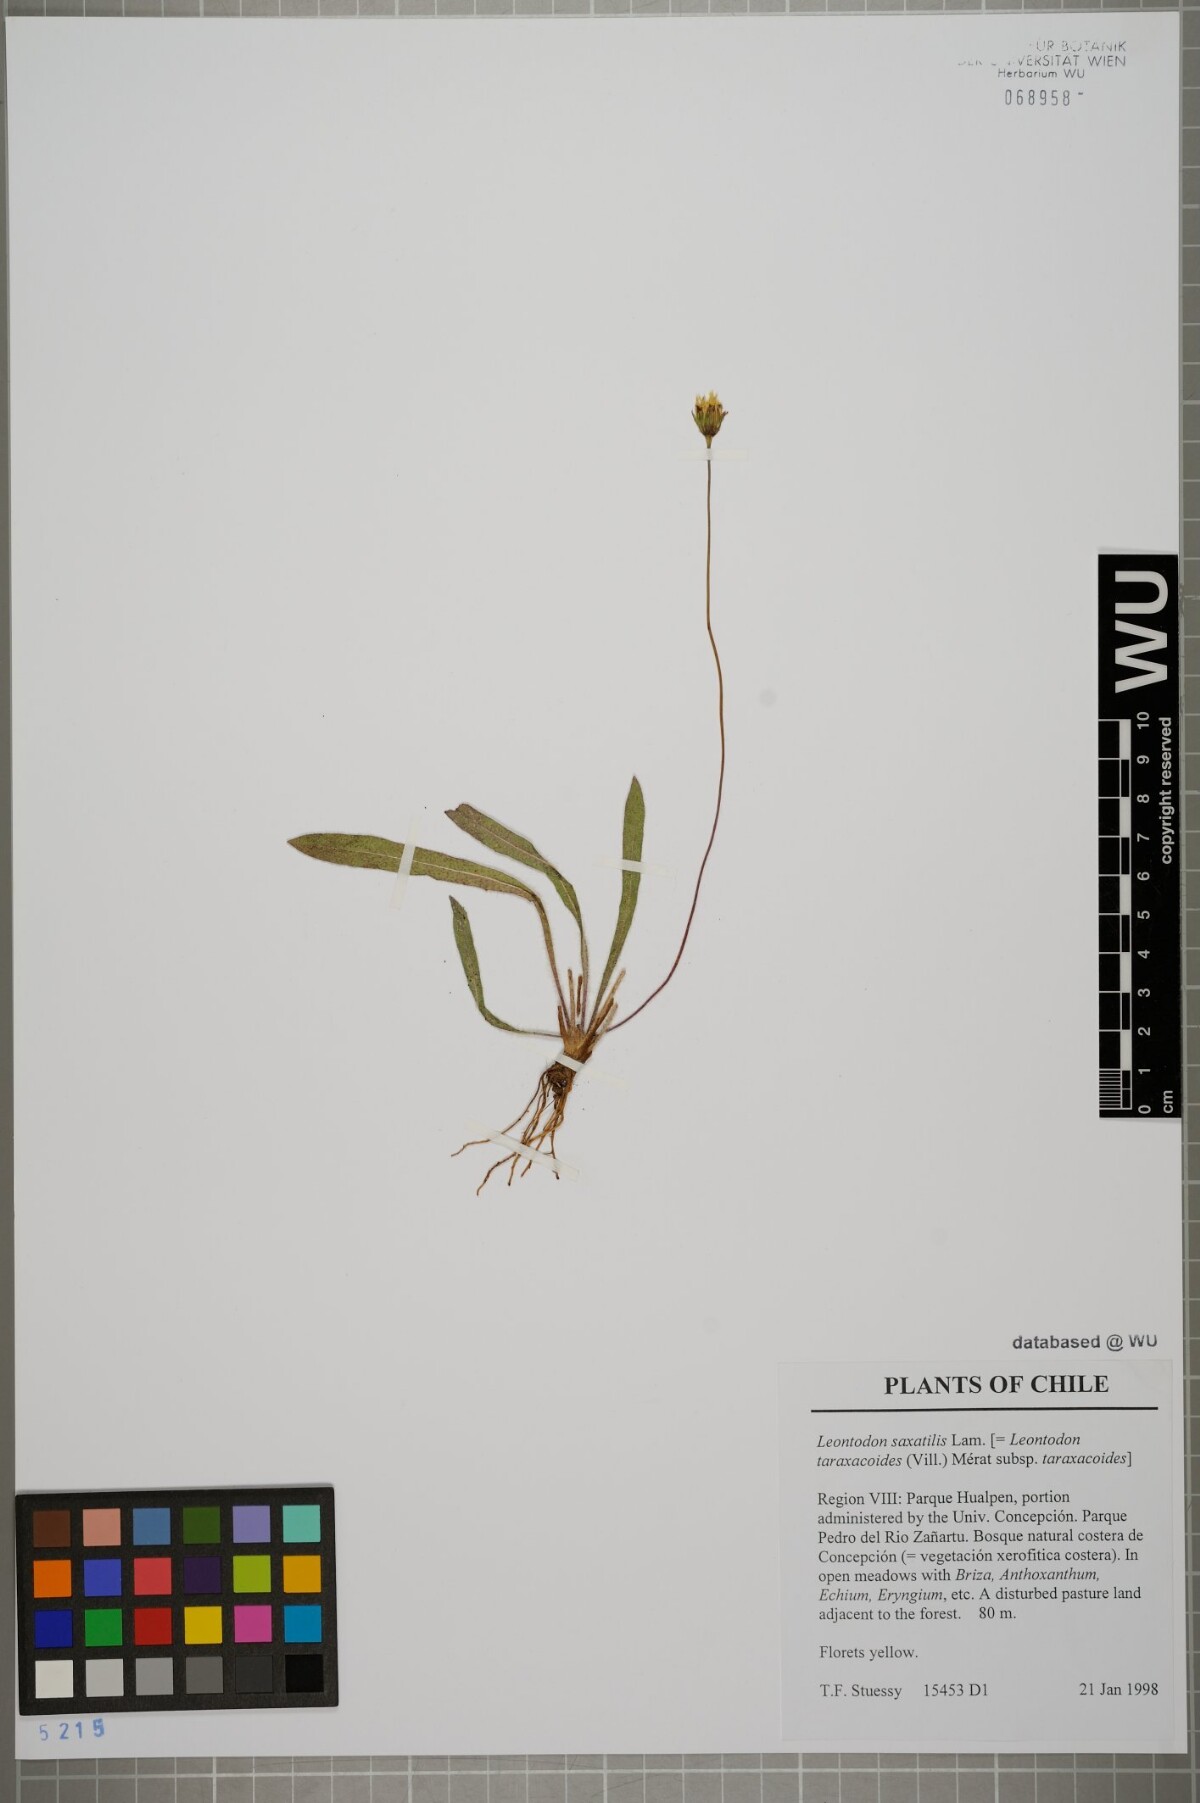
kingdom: Plantae
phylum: Tracheophyta
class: Magnoliopsida
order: Asterales
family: Asteraceae
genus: Thrincia
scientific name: Thrincia saxatilis
